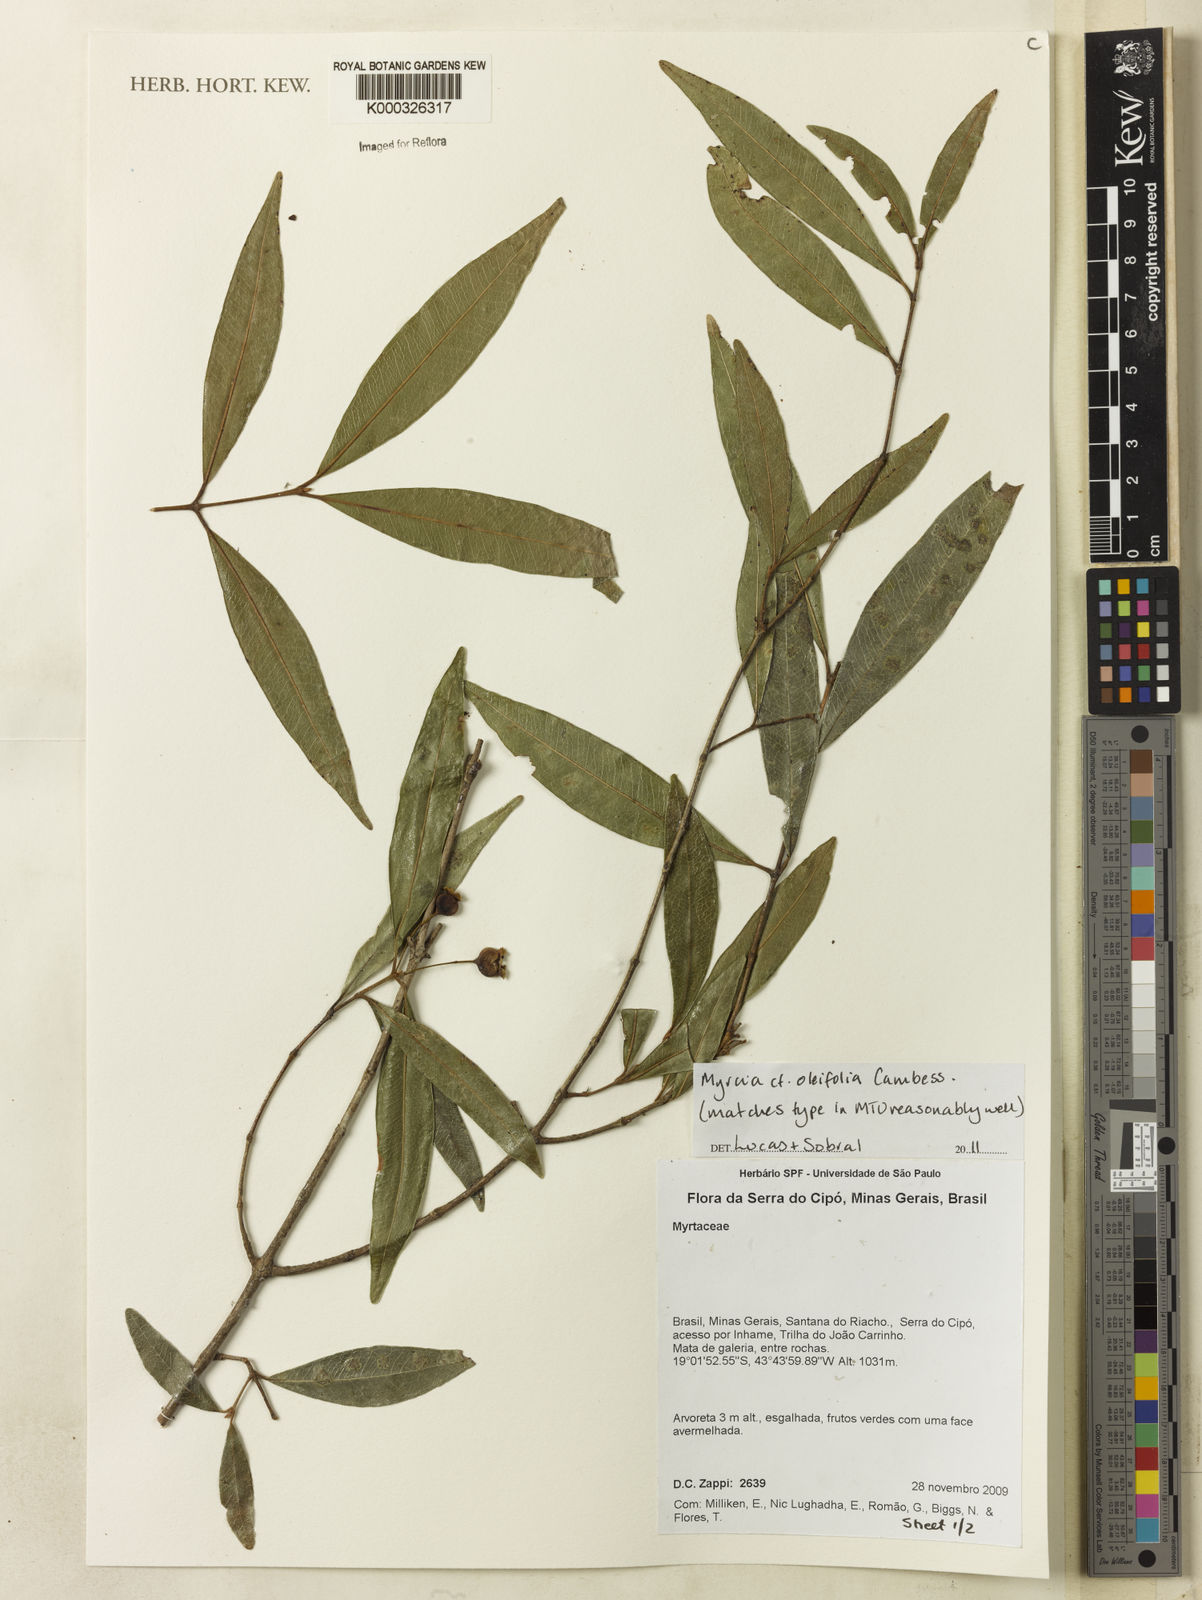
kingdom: Plantae
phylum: Tracheophyta
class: Magnoliopsida
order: Myrtales
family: Myrtaceae
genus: Myrcia
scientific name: Myrcia venulosa
